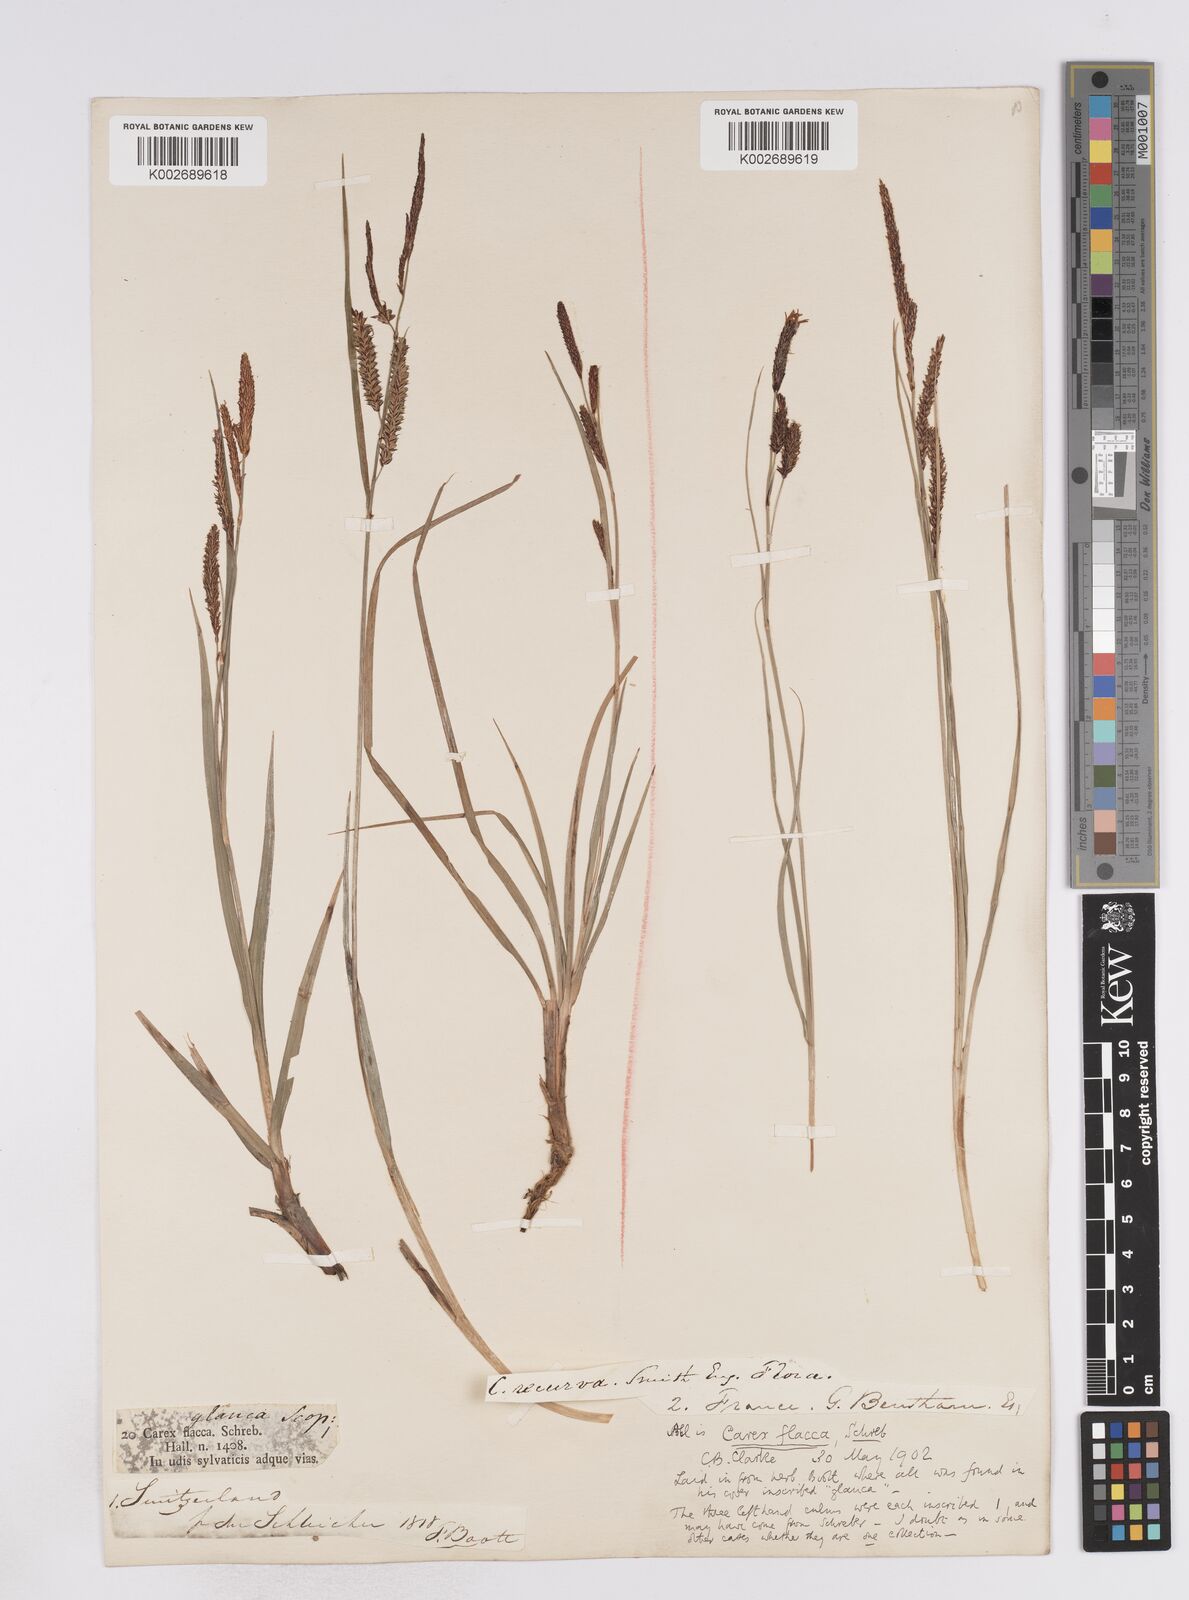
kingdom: Plantae
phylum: Tracheophyta
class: Liliopsida
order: Poales
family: Cyperaceae
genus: Carex
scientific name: Carex flacca
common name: Glaucous sedge
